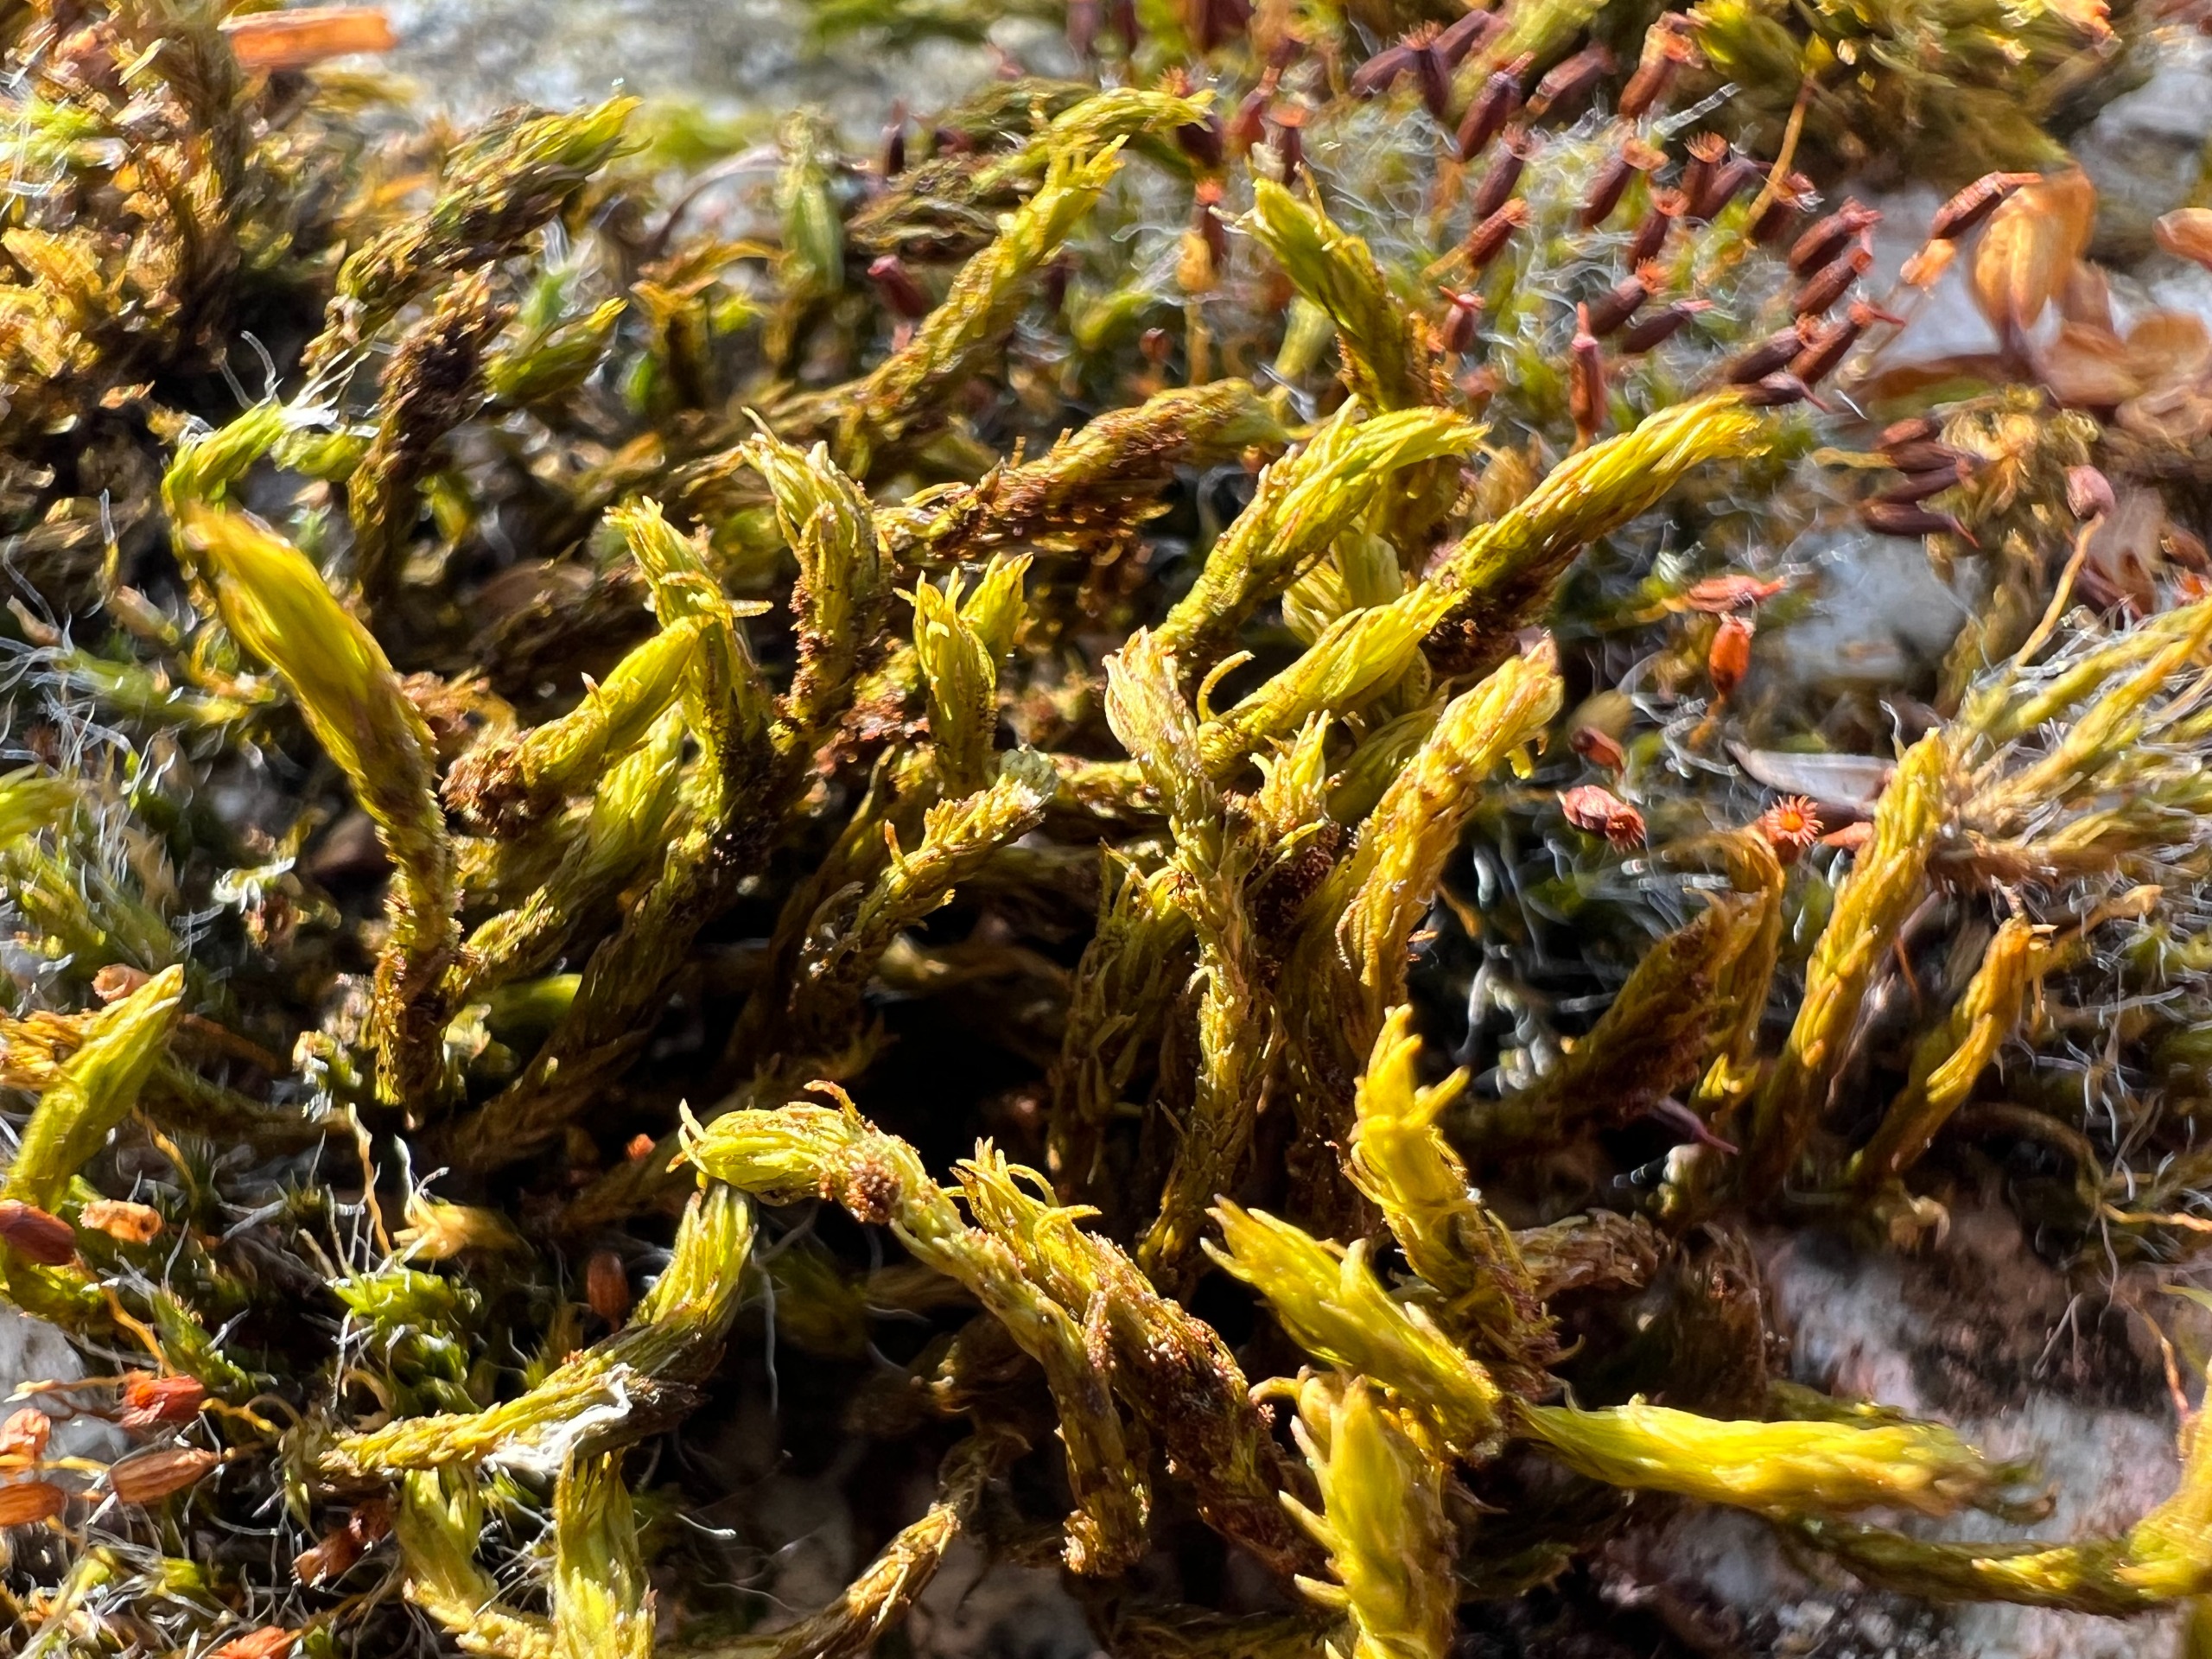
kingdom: Plantae
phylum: Bryophyta
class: Bryopsida
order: Orthotrichales
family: Orthotrichaceae
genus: Pulvigera
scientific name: Pulvigera lyellii
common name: Stor furehætte
